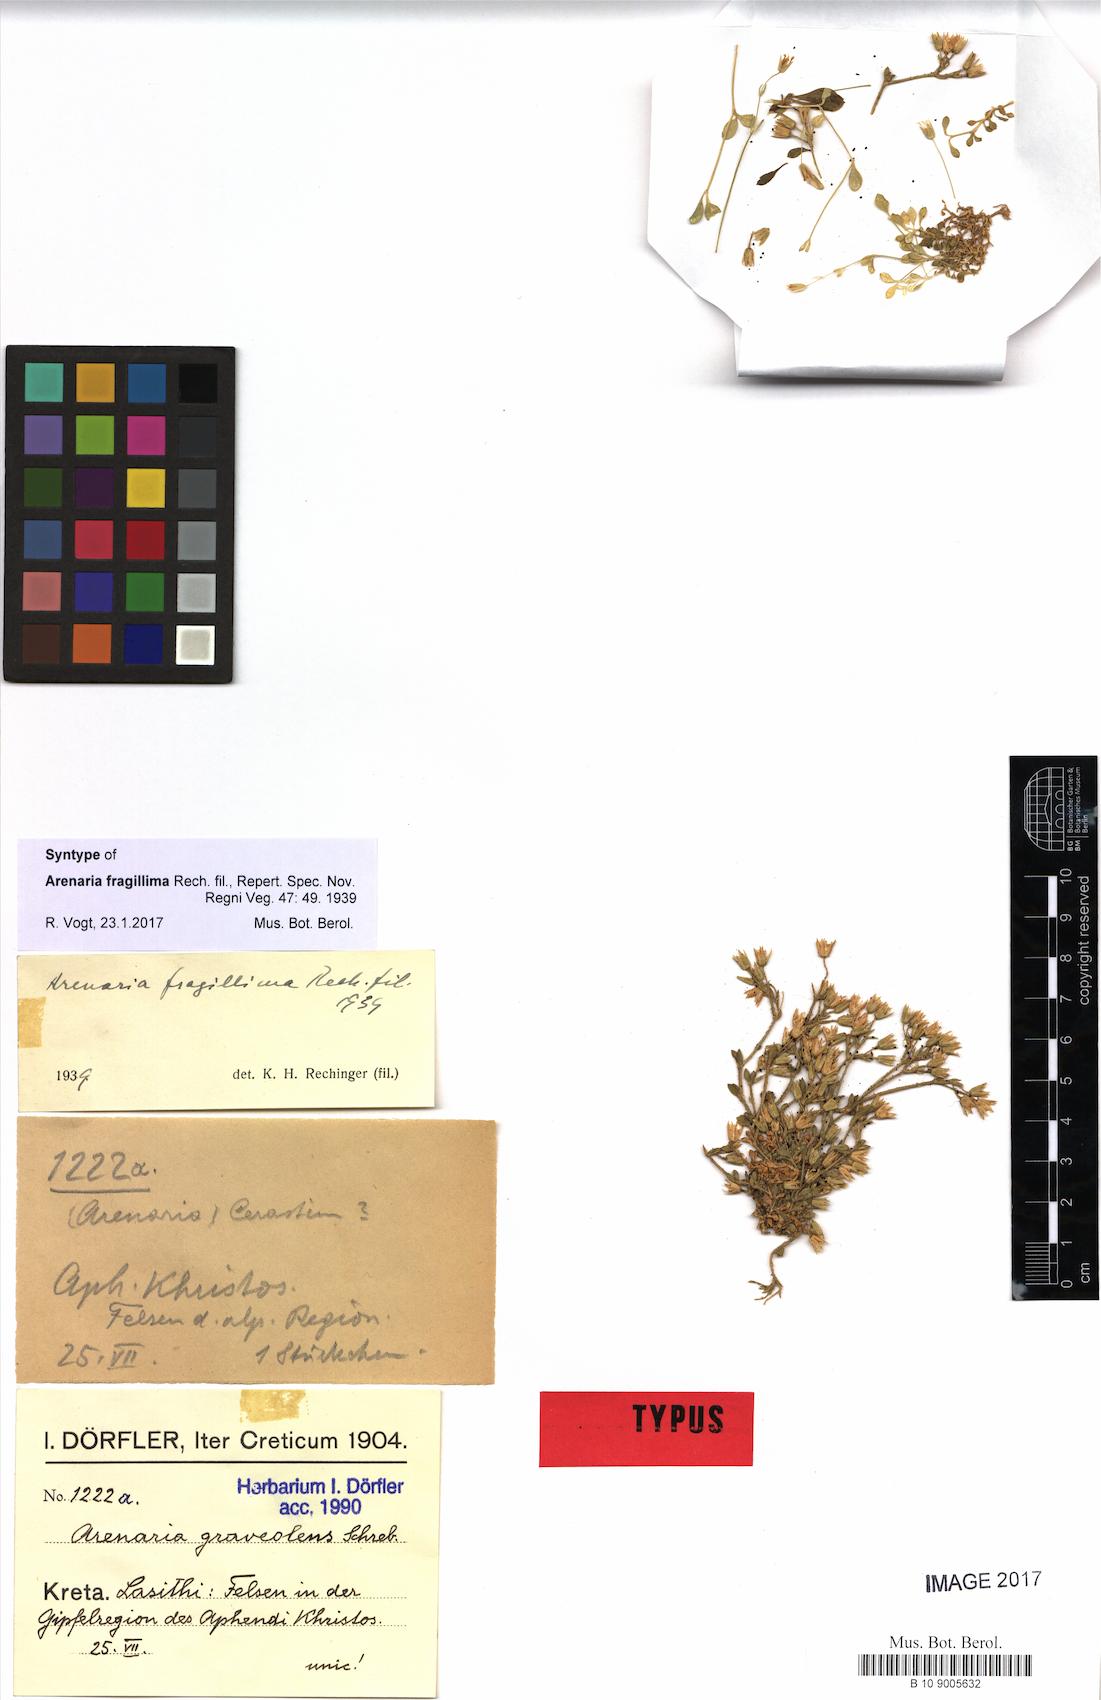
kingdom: Plantae
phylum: Tracheophyta
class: Magnoliopsida
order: Caryophyllales
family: Caryophyllaceae
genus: Arenaria
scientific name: Arenaria fragillima
